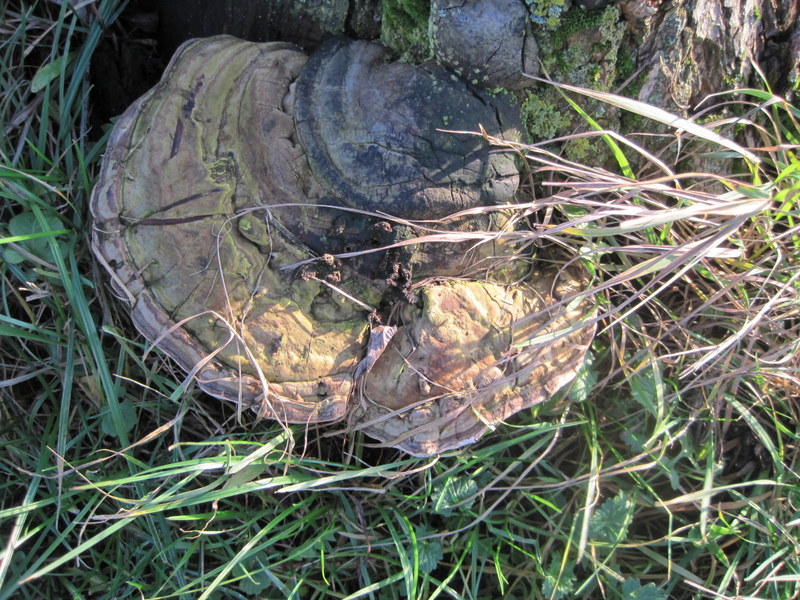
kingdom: Fungi
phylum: Basidiomycota
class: Agaricomycetes
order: Polyporales
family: Polyporaceae
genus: Ganoderma
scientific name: Ganoderma applanatum
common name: flad lakporesvamp
